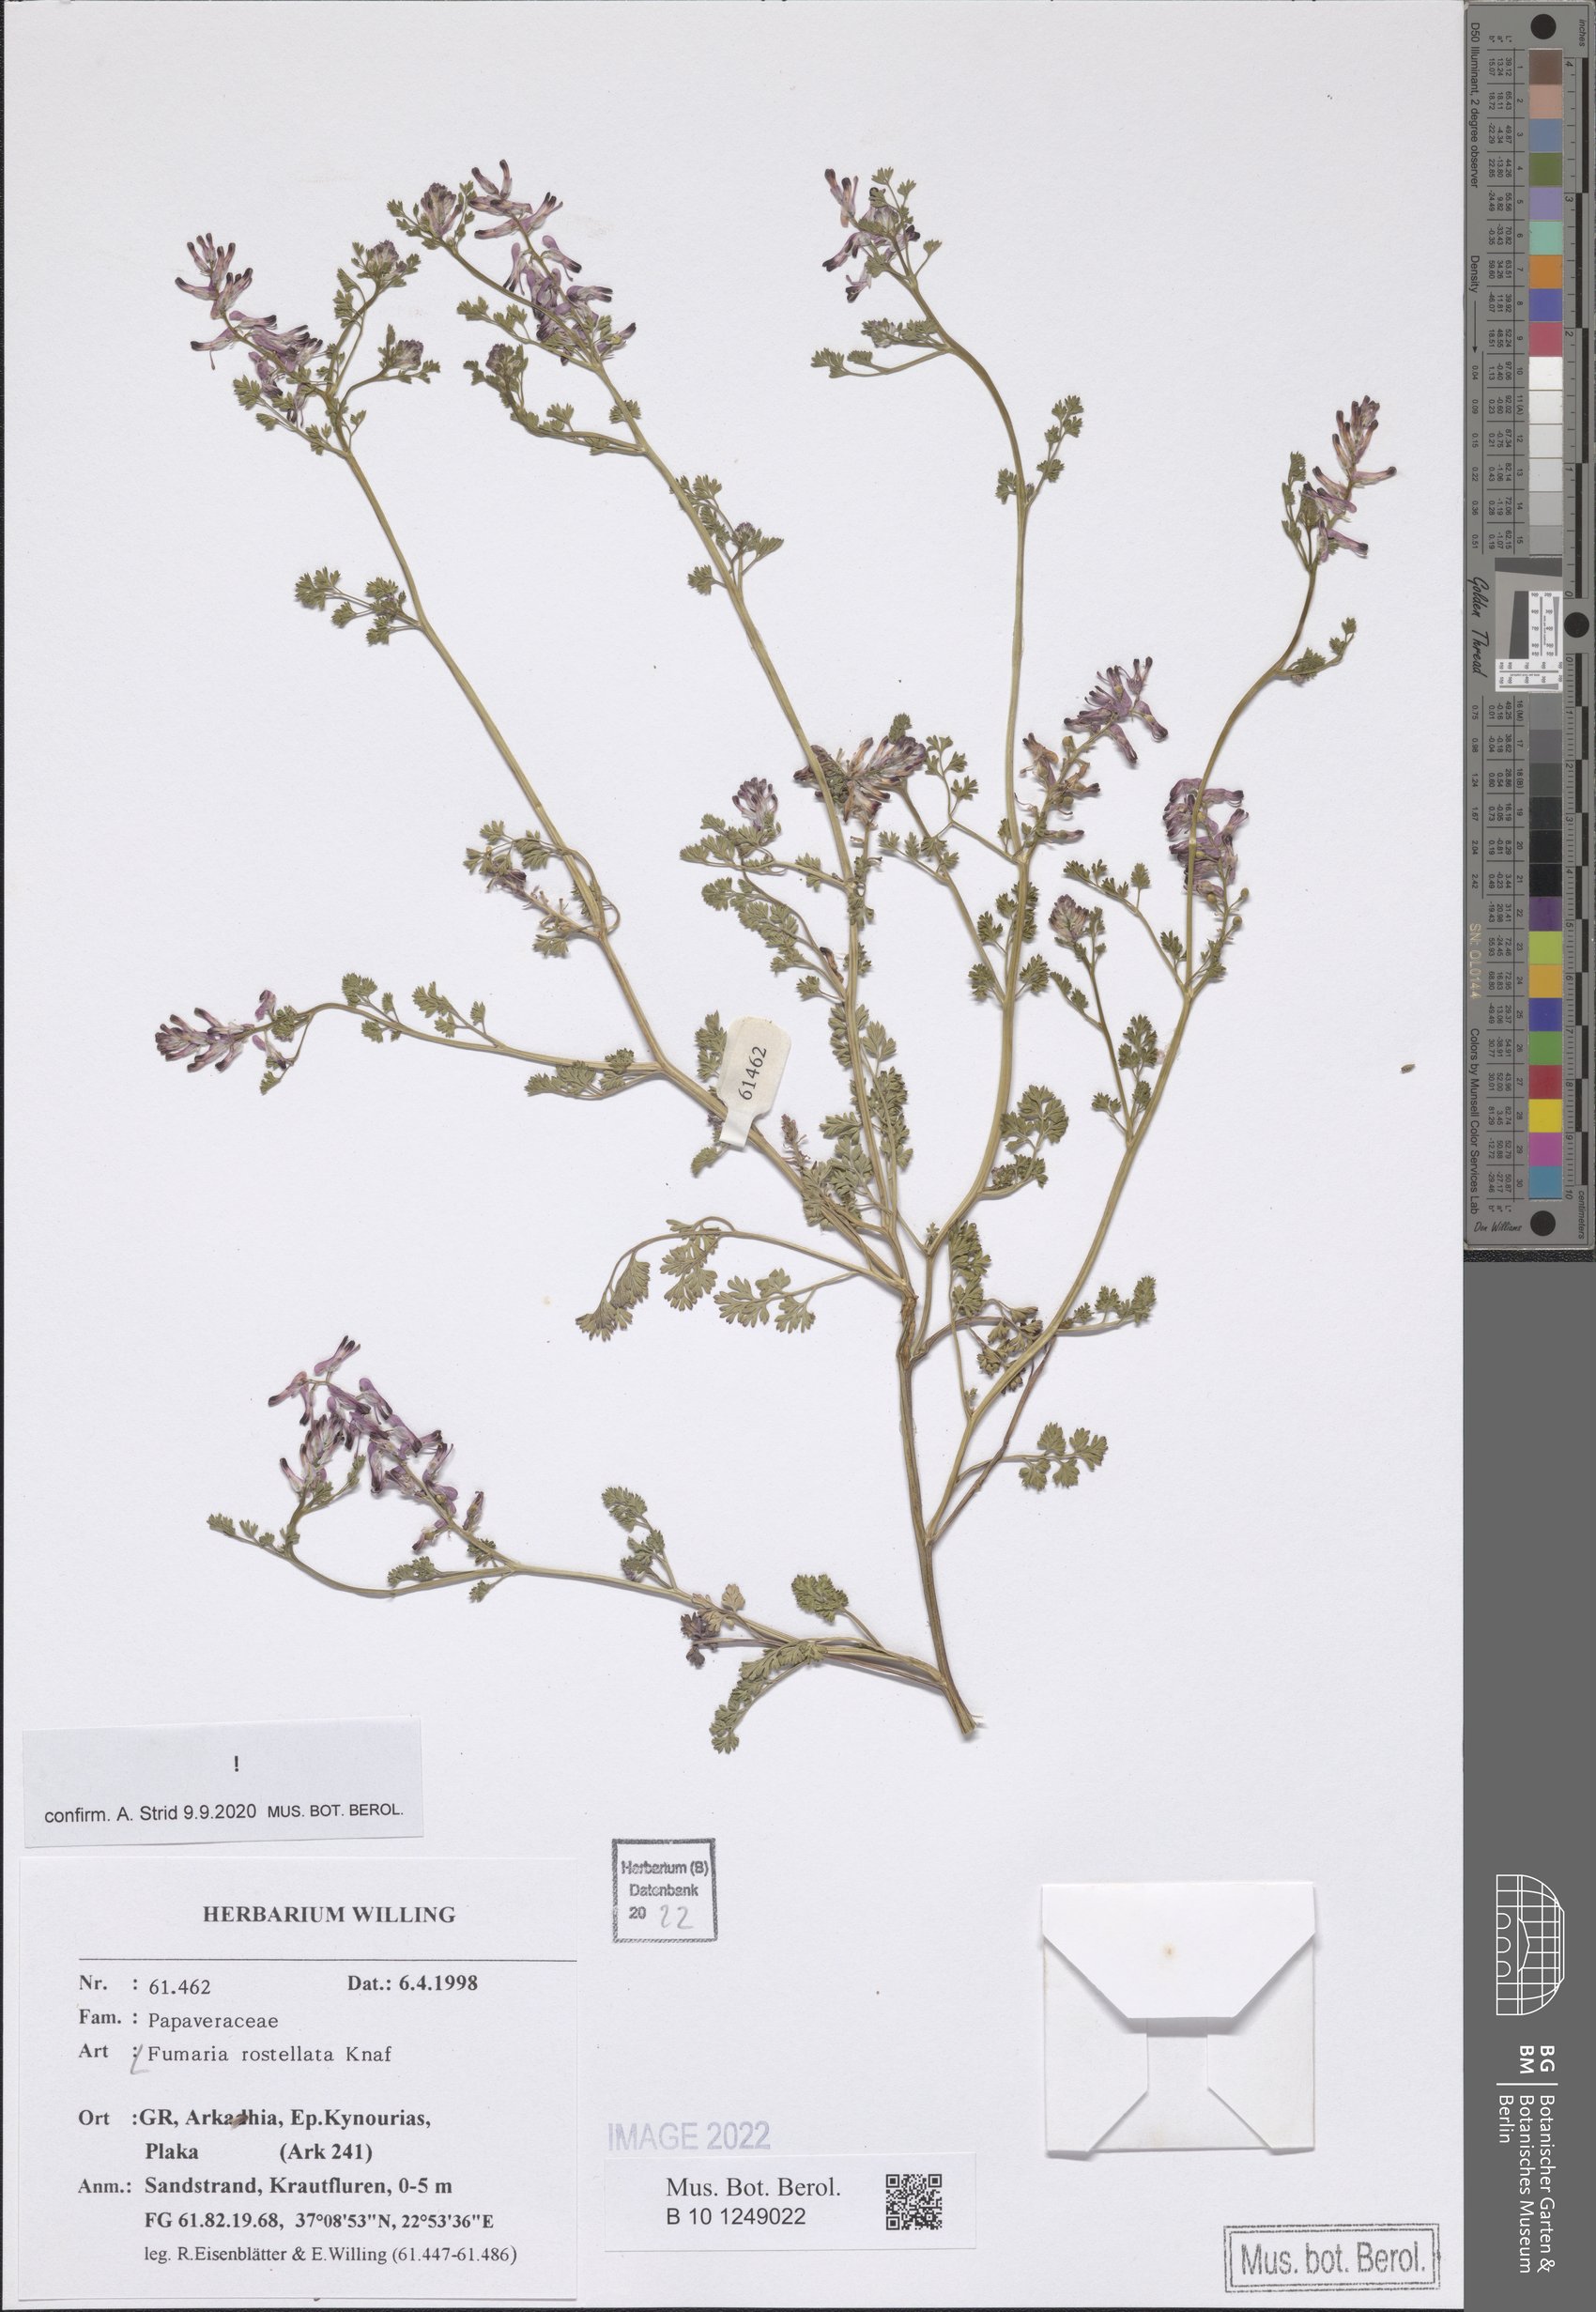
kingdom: Plantae
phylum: Tracheophyta
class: Magnoliopsida
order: Ranunculales
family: Papaveraceae
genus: Fumaria
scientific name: Fumaria rostellata
